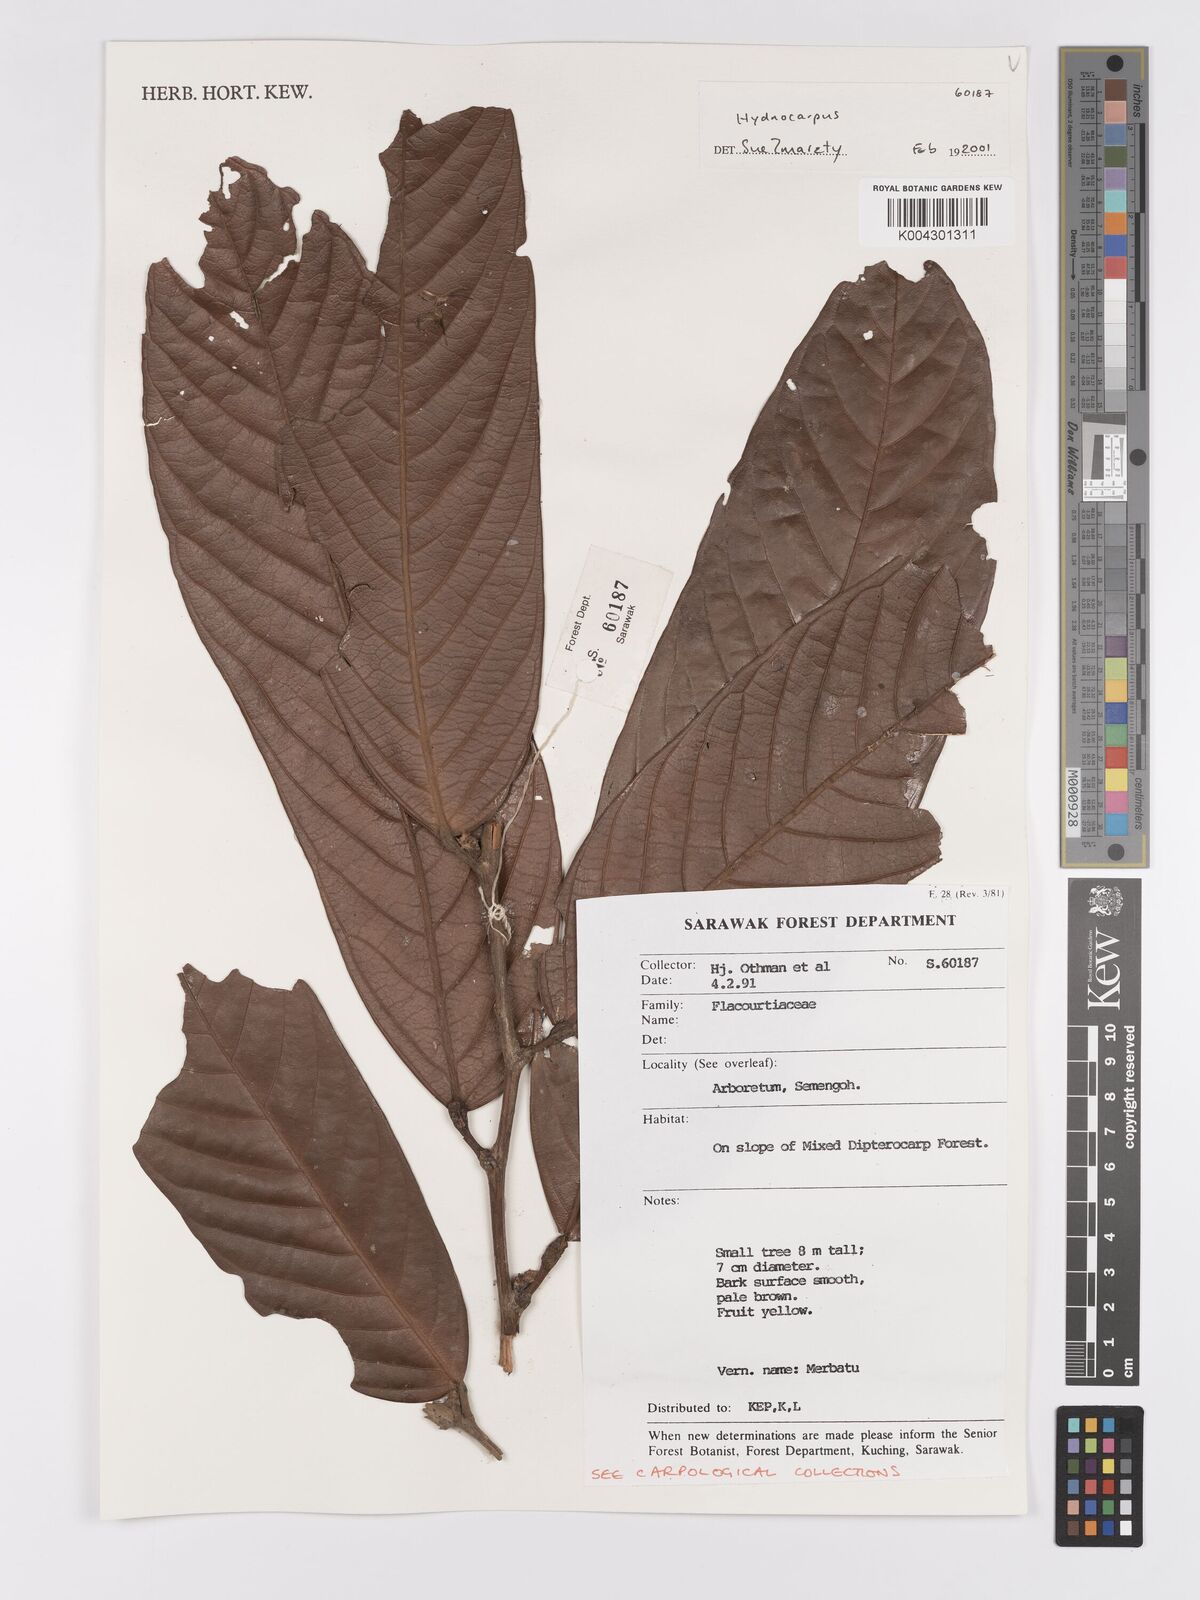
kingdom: Plantae
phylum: Tracheophyta
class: Magnoliopsida
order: Malpighiales
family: Achariaceae
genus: Hydnocarpus
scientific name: Hydnocarpus
